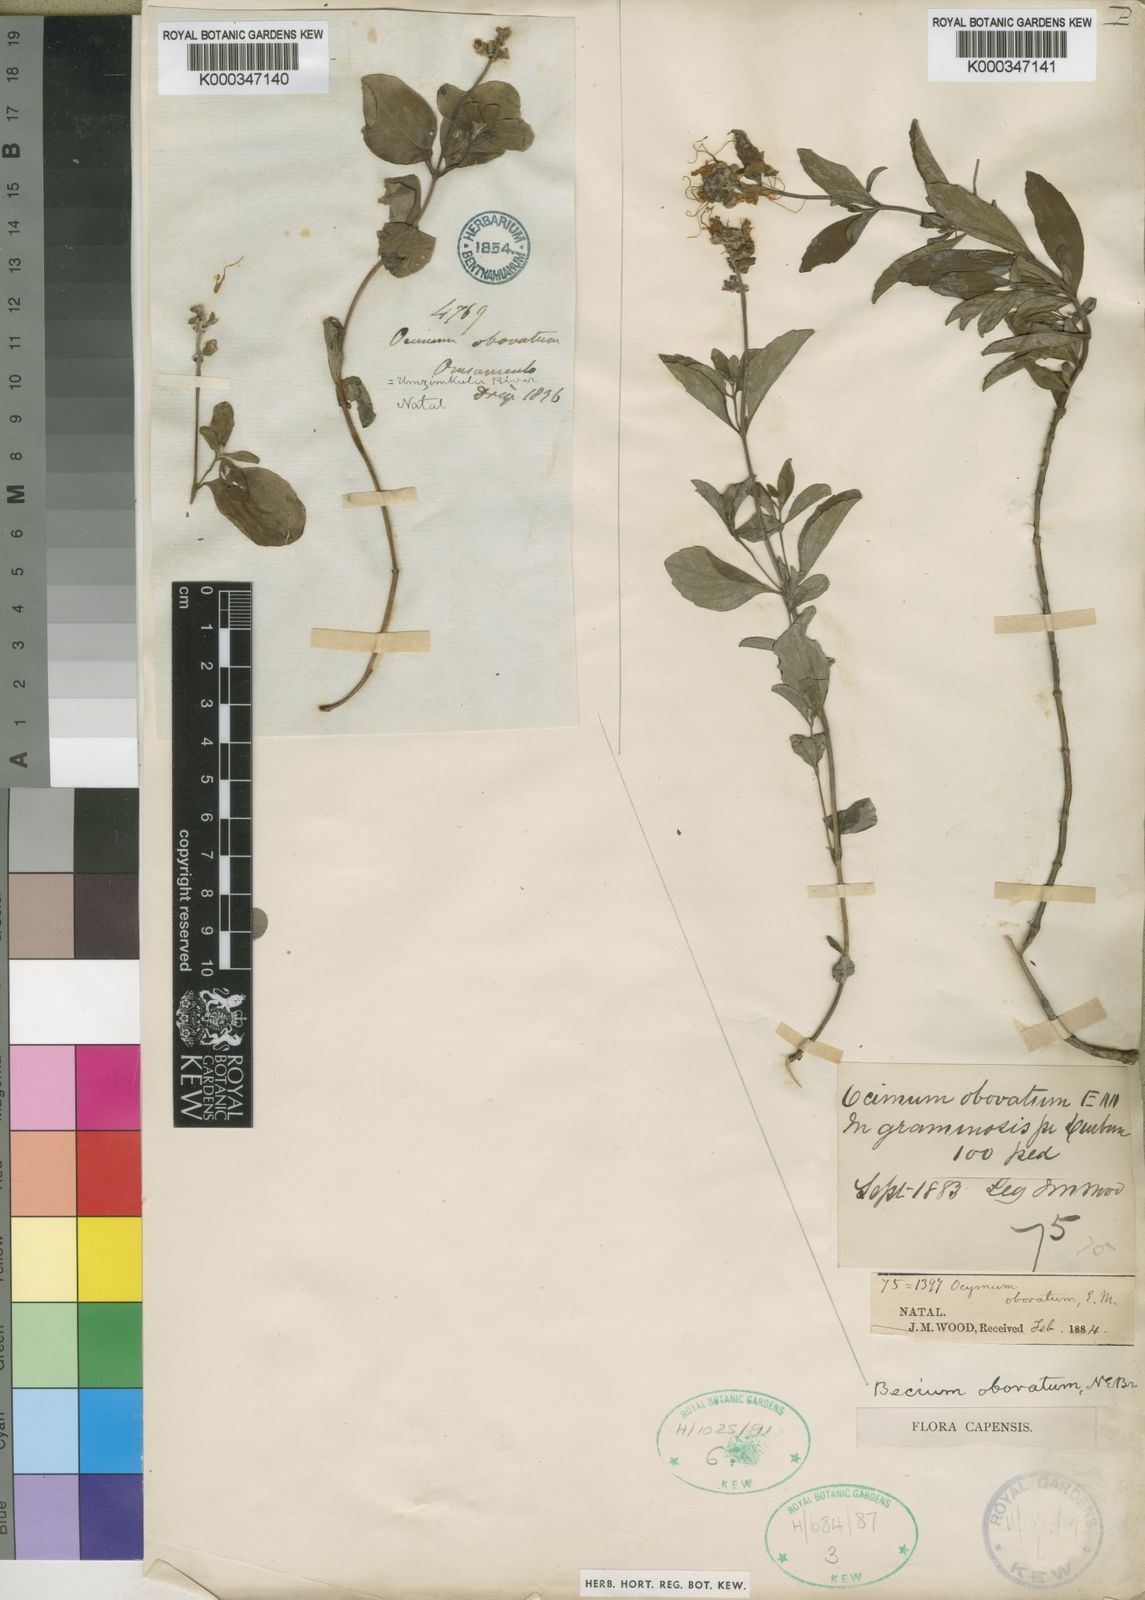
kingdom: Plantae
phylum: Tracheophyta
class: Magnoliopsida
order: Lamiales
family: Lamiaceae
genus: Ocimum
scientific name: Ocimum obovatum
